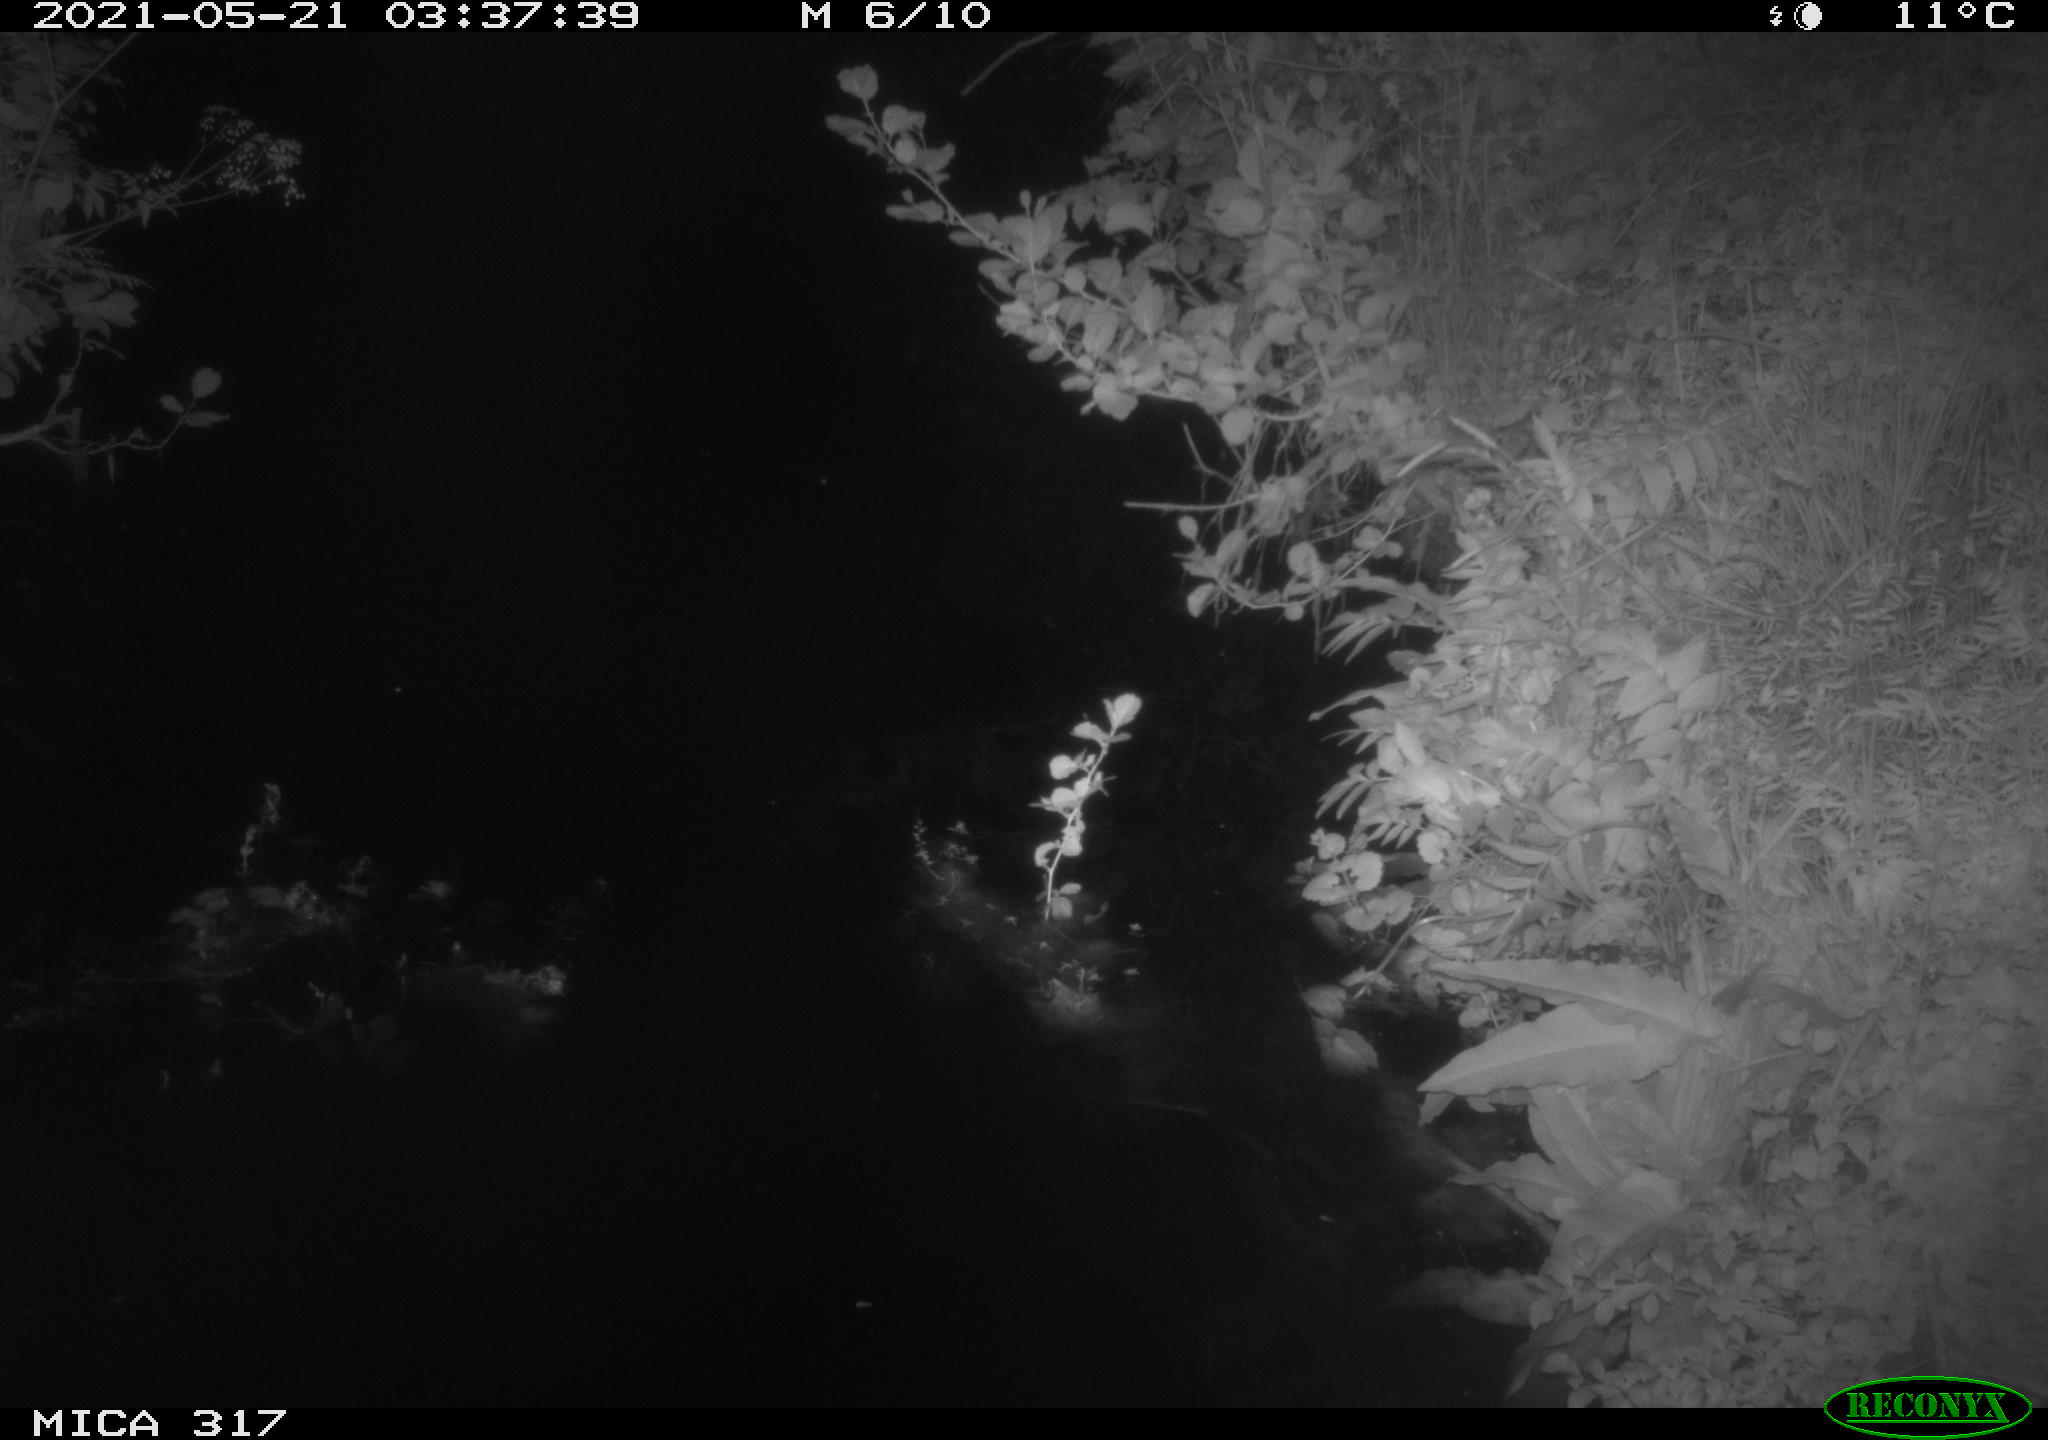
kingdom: Animalia
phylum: Chordata
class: Aves
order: Anseriformes
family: Anatidae
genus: Anas
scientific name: Anas
